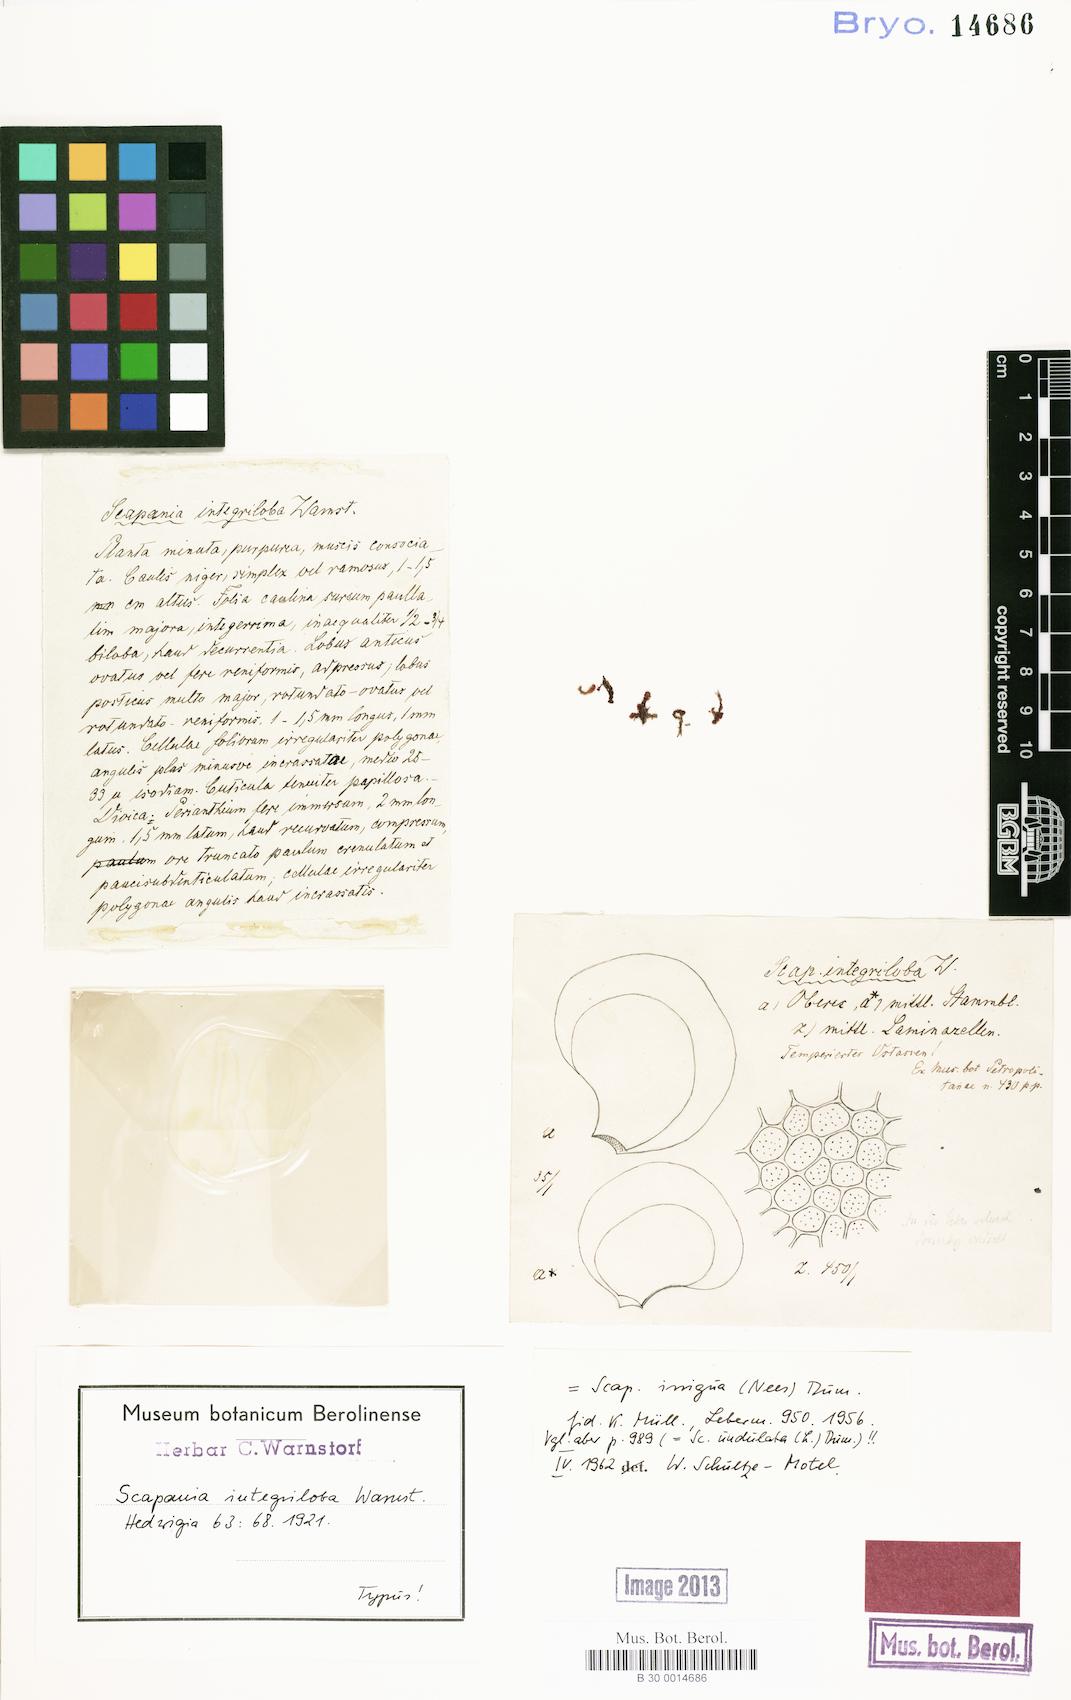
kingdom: Plantae
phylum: Marchantiophyta
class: Jungermanniopsida
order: Jungermanniales
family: Scapaniaceae
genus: Scapania
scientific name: Scapania irrigua
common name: Heath earwort
